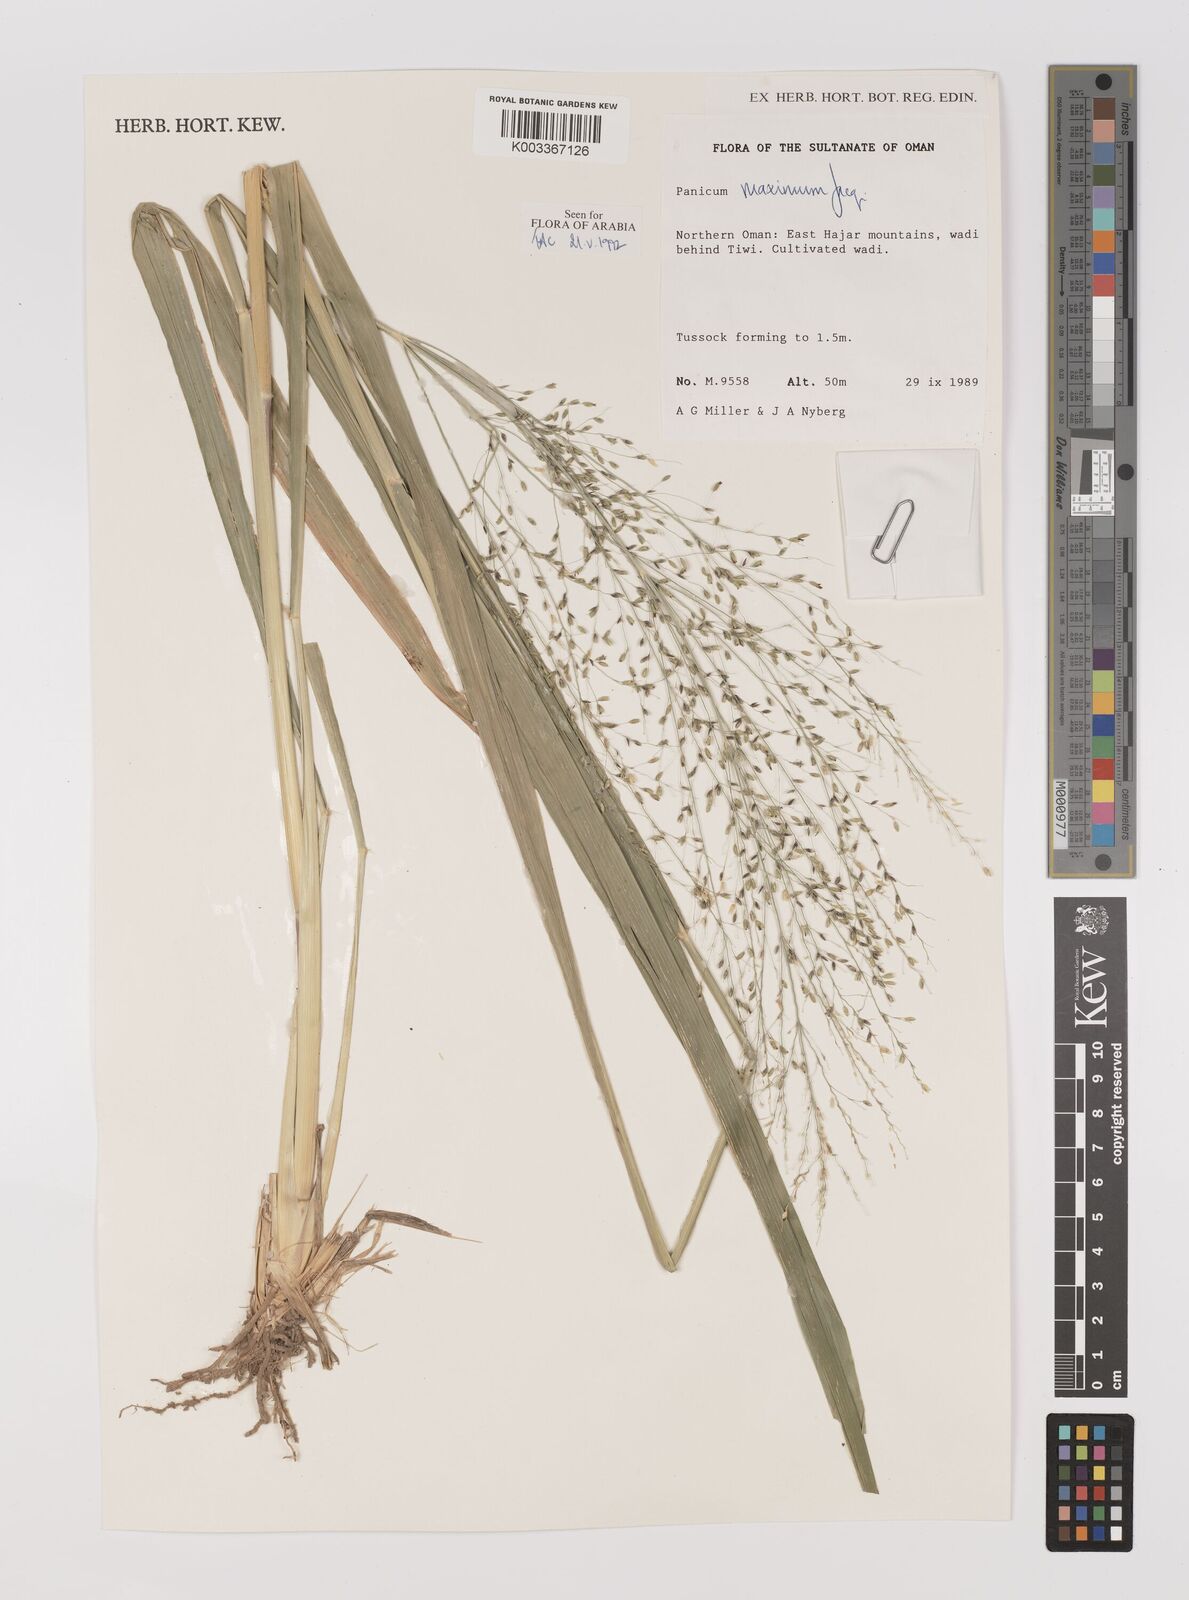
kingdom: Plantae
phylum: Tracheophyta
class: Liliopsida
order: Poales
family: Poaceae
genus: Megathyrsus
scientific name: Megathyrsus maximus
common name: Guineagrass
